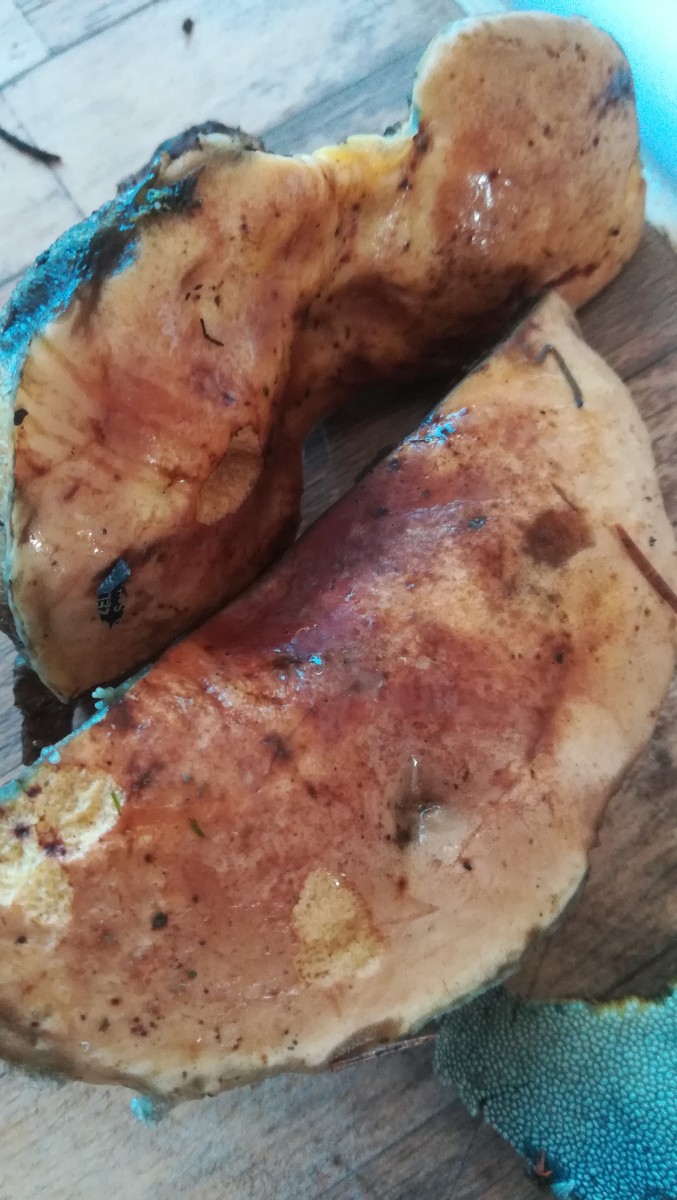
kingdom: Fungi
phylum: Basidiomycota
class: Agaricomycetes
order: Boletales
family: Boletaceae
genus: Neoboletus
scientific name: Neoboletus erythropus
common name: punktstokket indigorørhat
